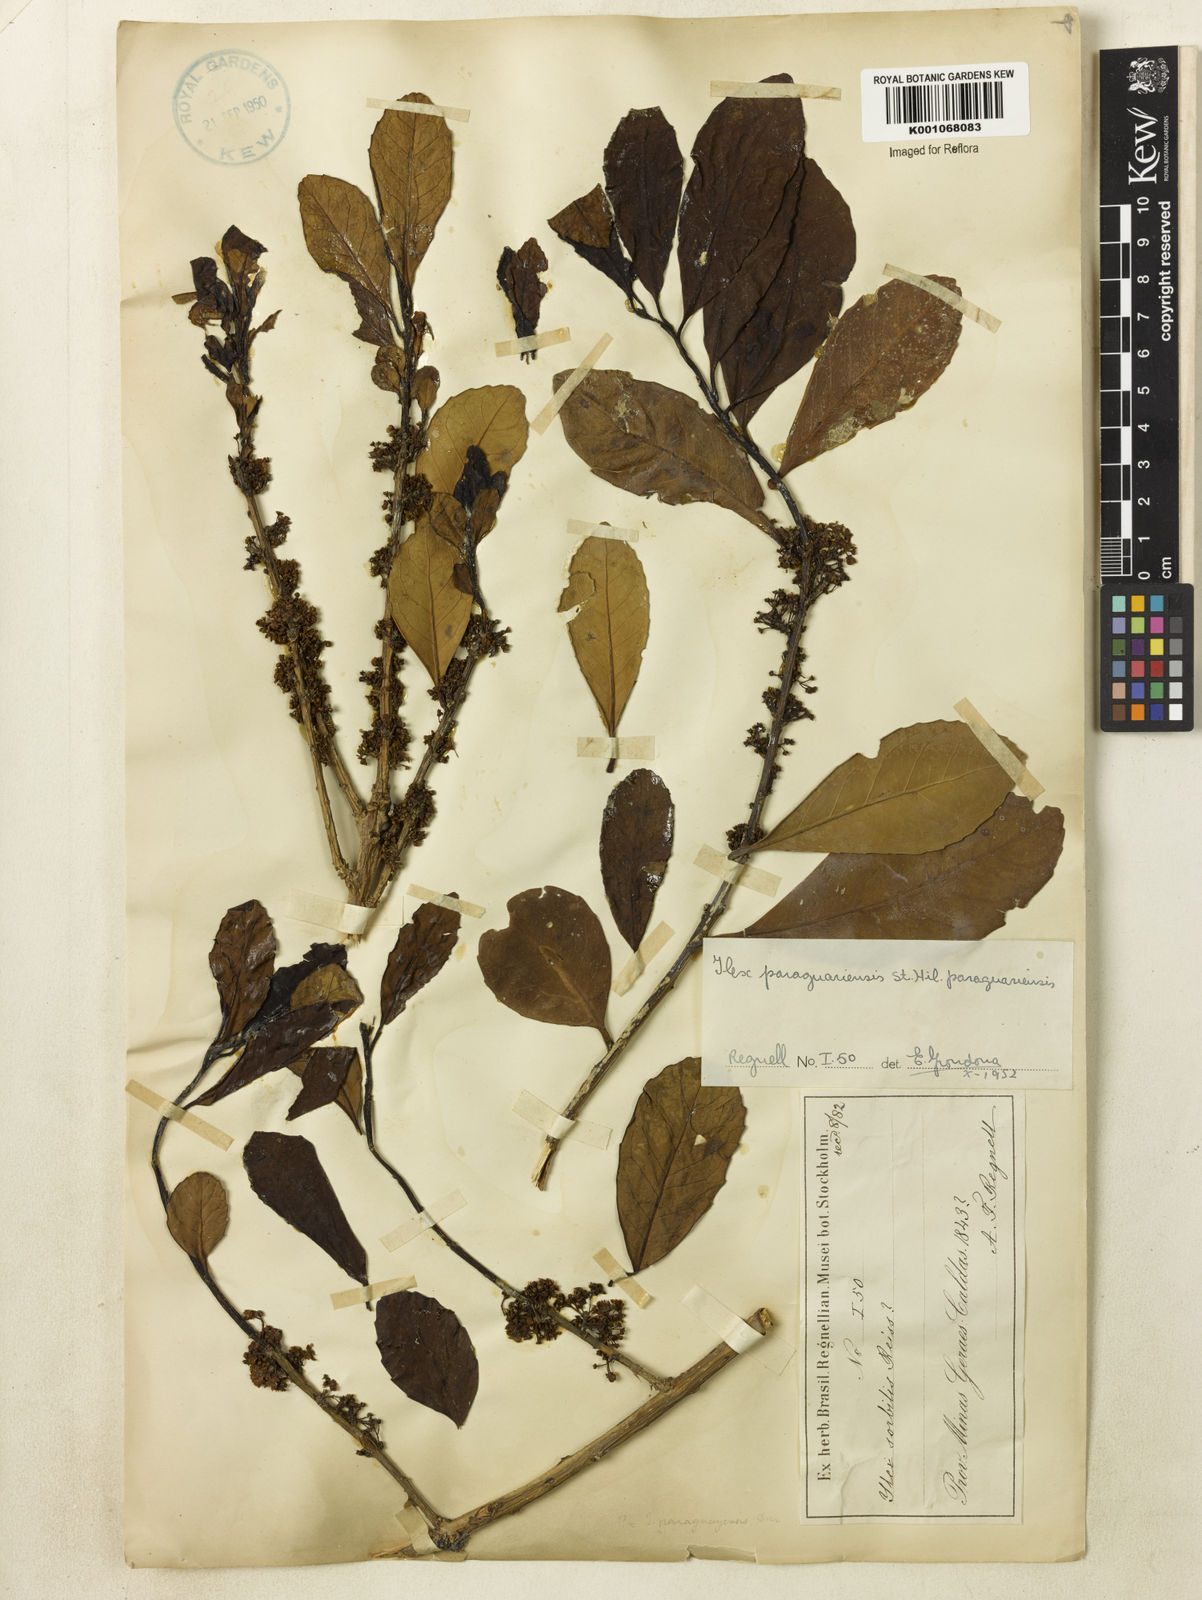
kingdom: Plantae
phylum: Tracheophyta
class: Magnoliopsida
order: Aquifoliales
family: Aquifoliaceae
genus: Ilex
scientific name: Ilex paraguariensis
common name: Paraguay tea
